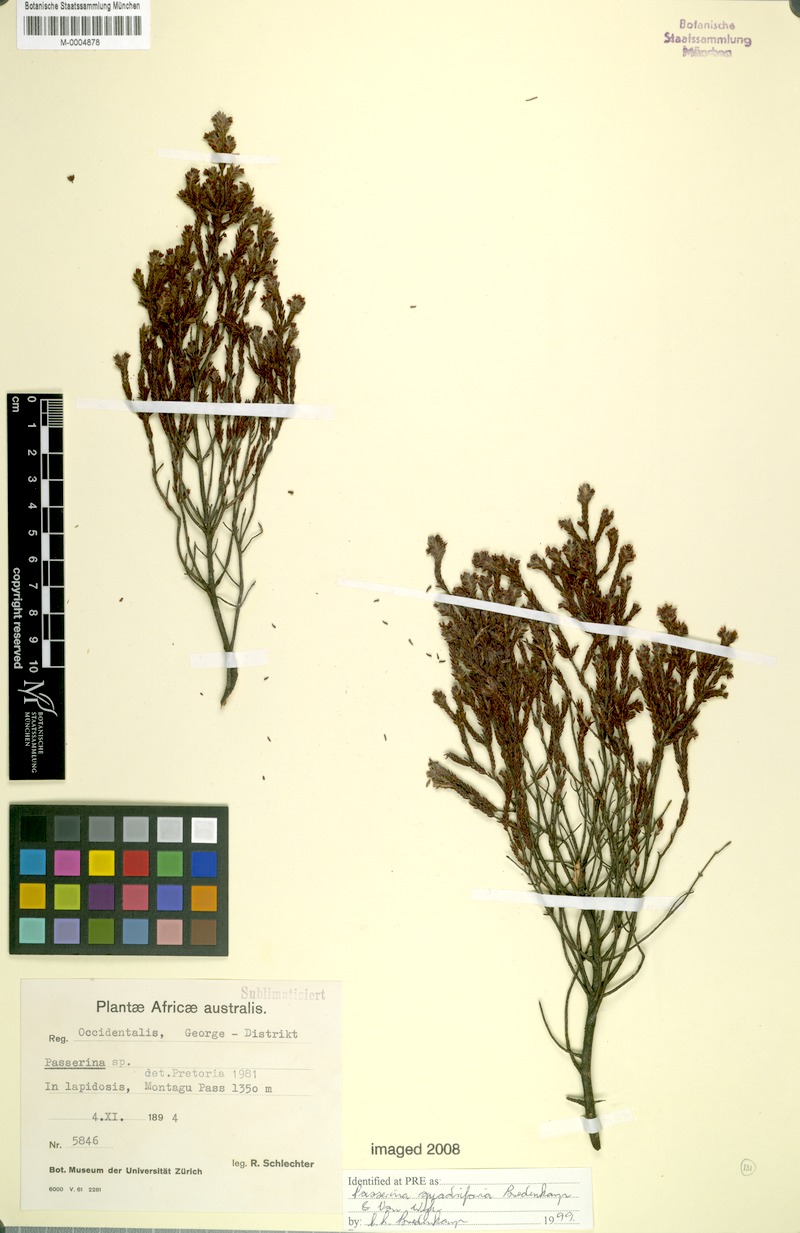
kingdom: Plantae
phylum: Tracheophyta
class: Magnoliopsida
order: Malvales
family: Thymelaeaceae
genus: Passerina
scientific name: Passerina quadrifaria
